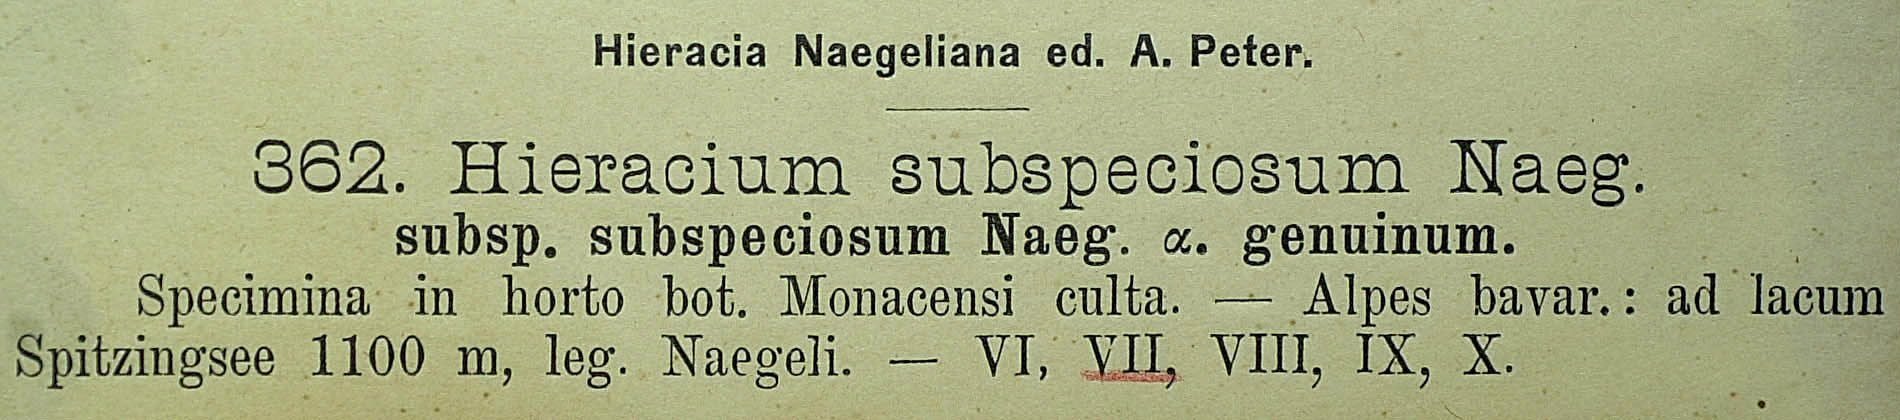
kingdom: Plantae
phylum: Tracheophyta
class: Magnoliopsida
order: Asterales
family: Asteraceae
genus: Hieracium
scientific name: Hieracium subspeciosum
